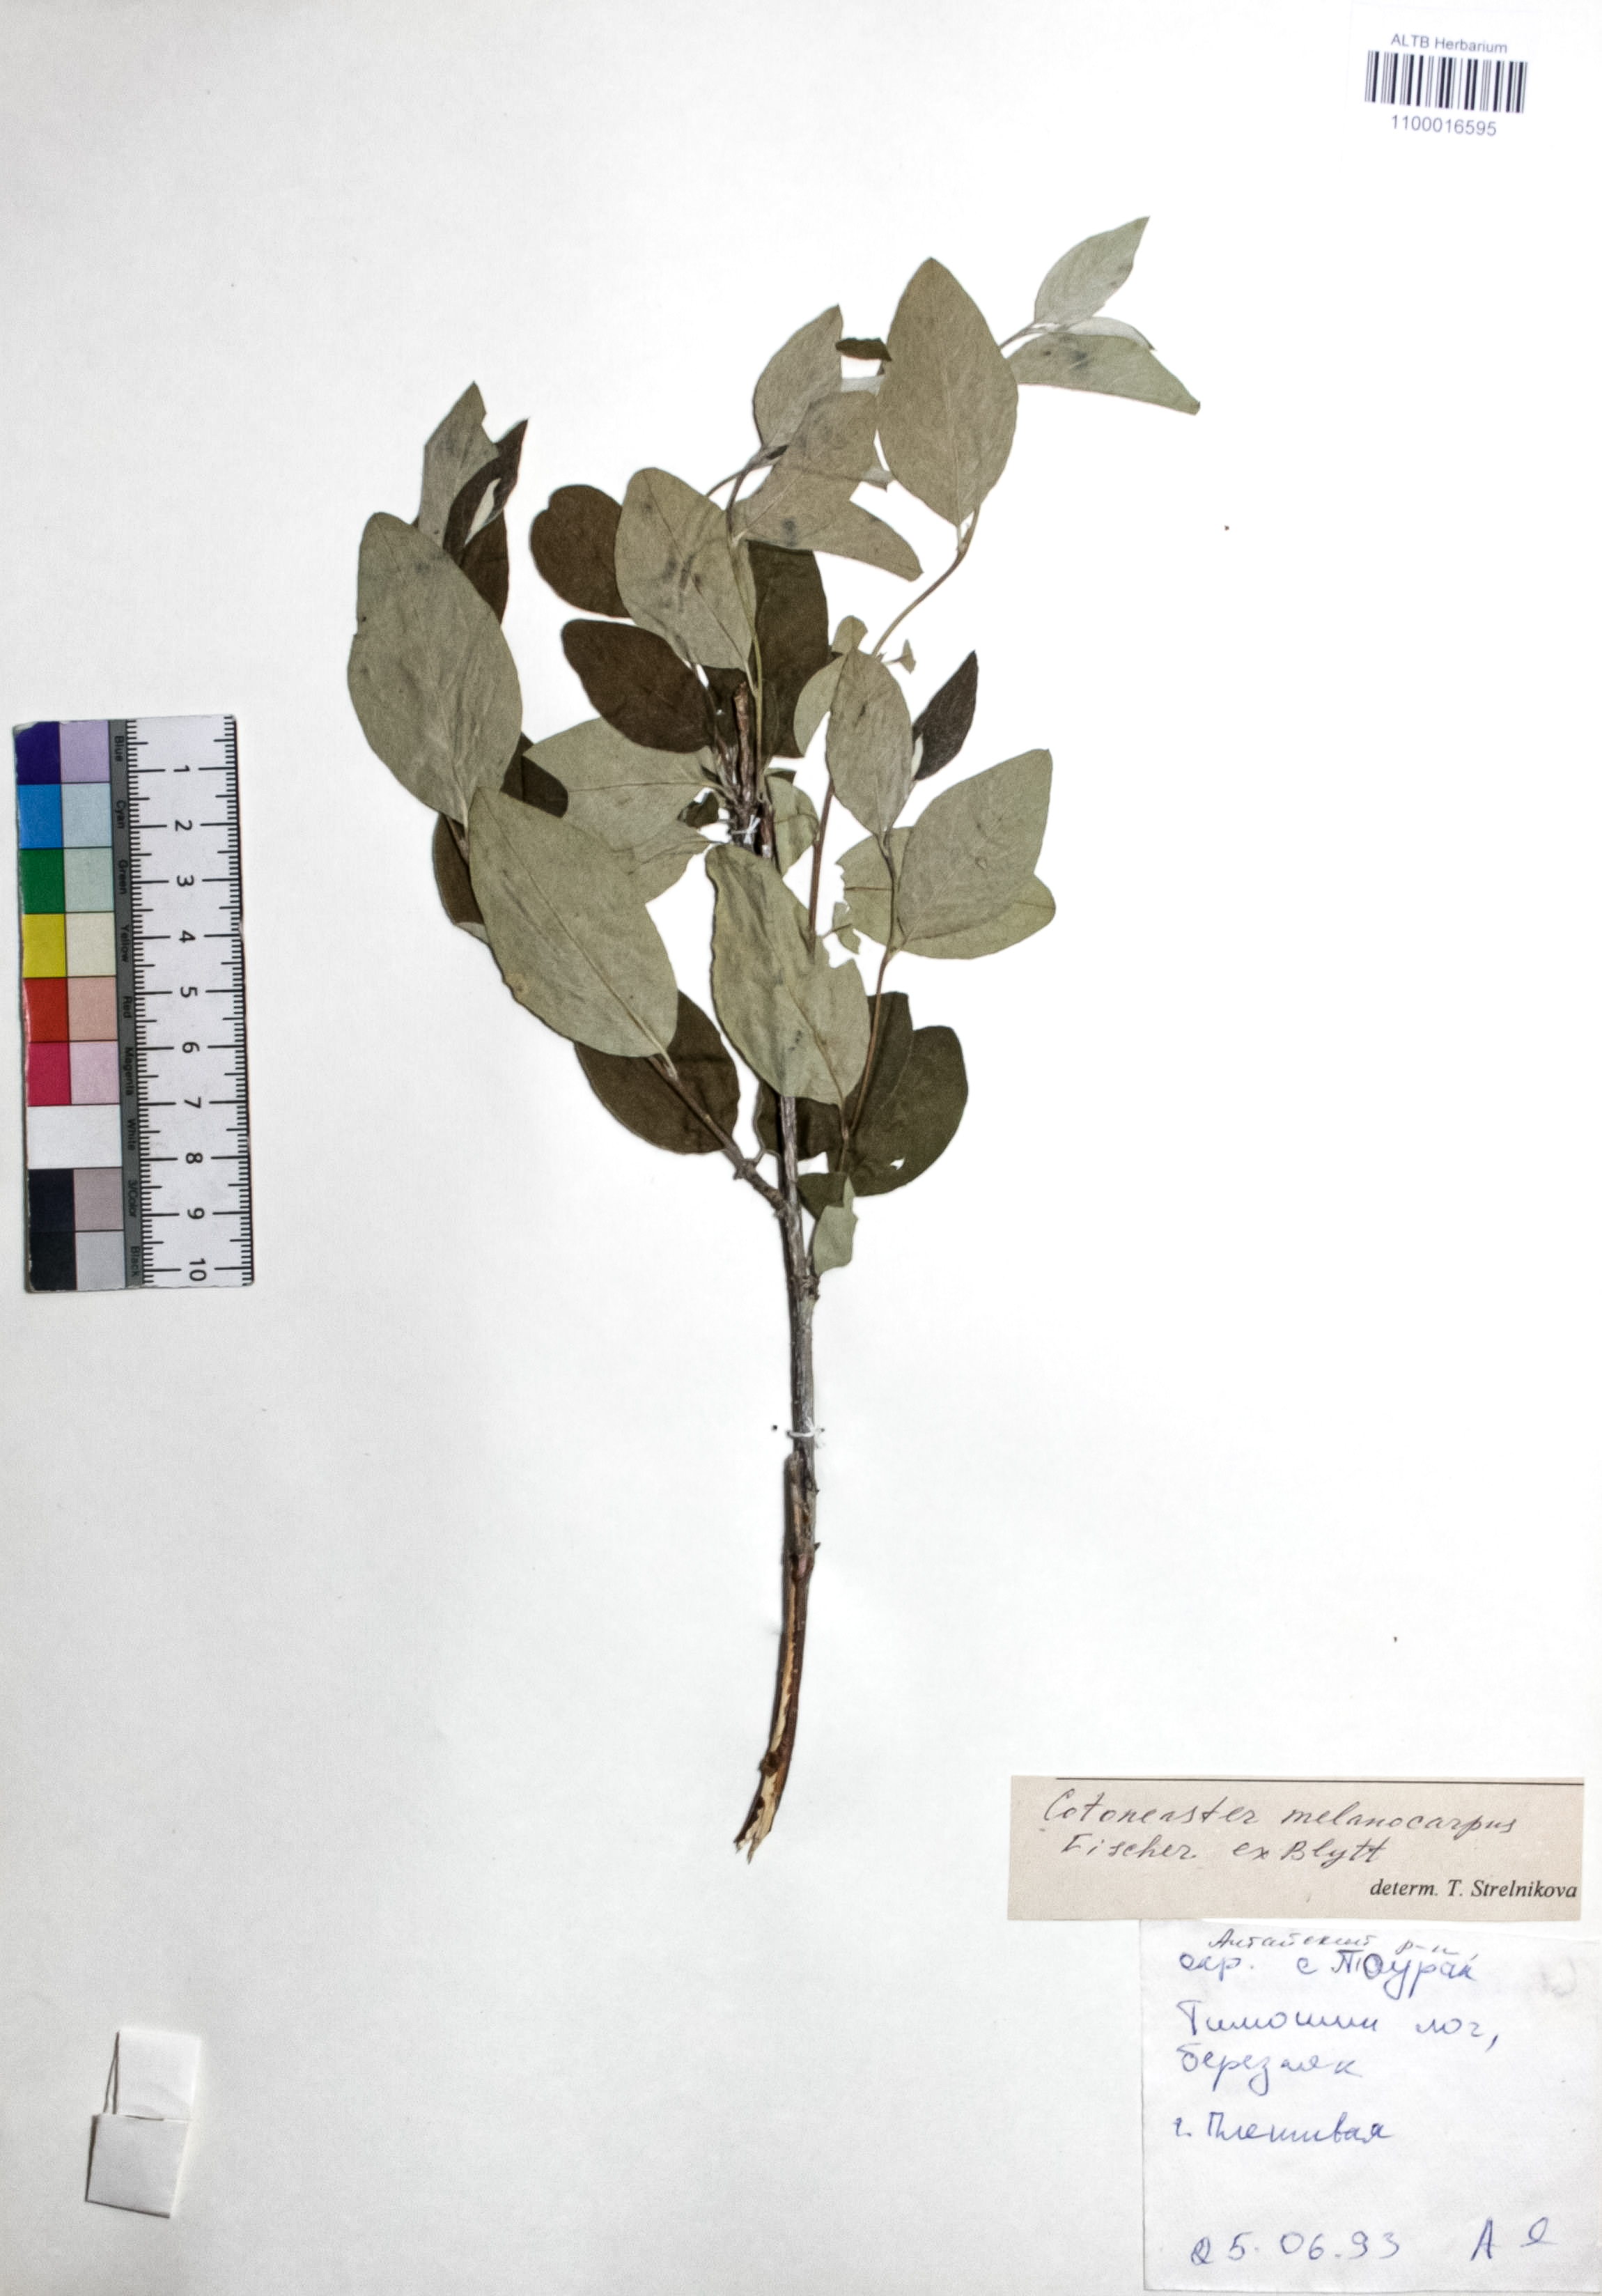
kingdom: Plantae
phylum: Tracheophyta
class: Magnoliopsida
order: Rosales
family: Rosaceae
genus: Cotoneaster
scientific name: Cotoneaster niger
